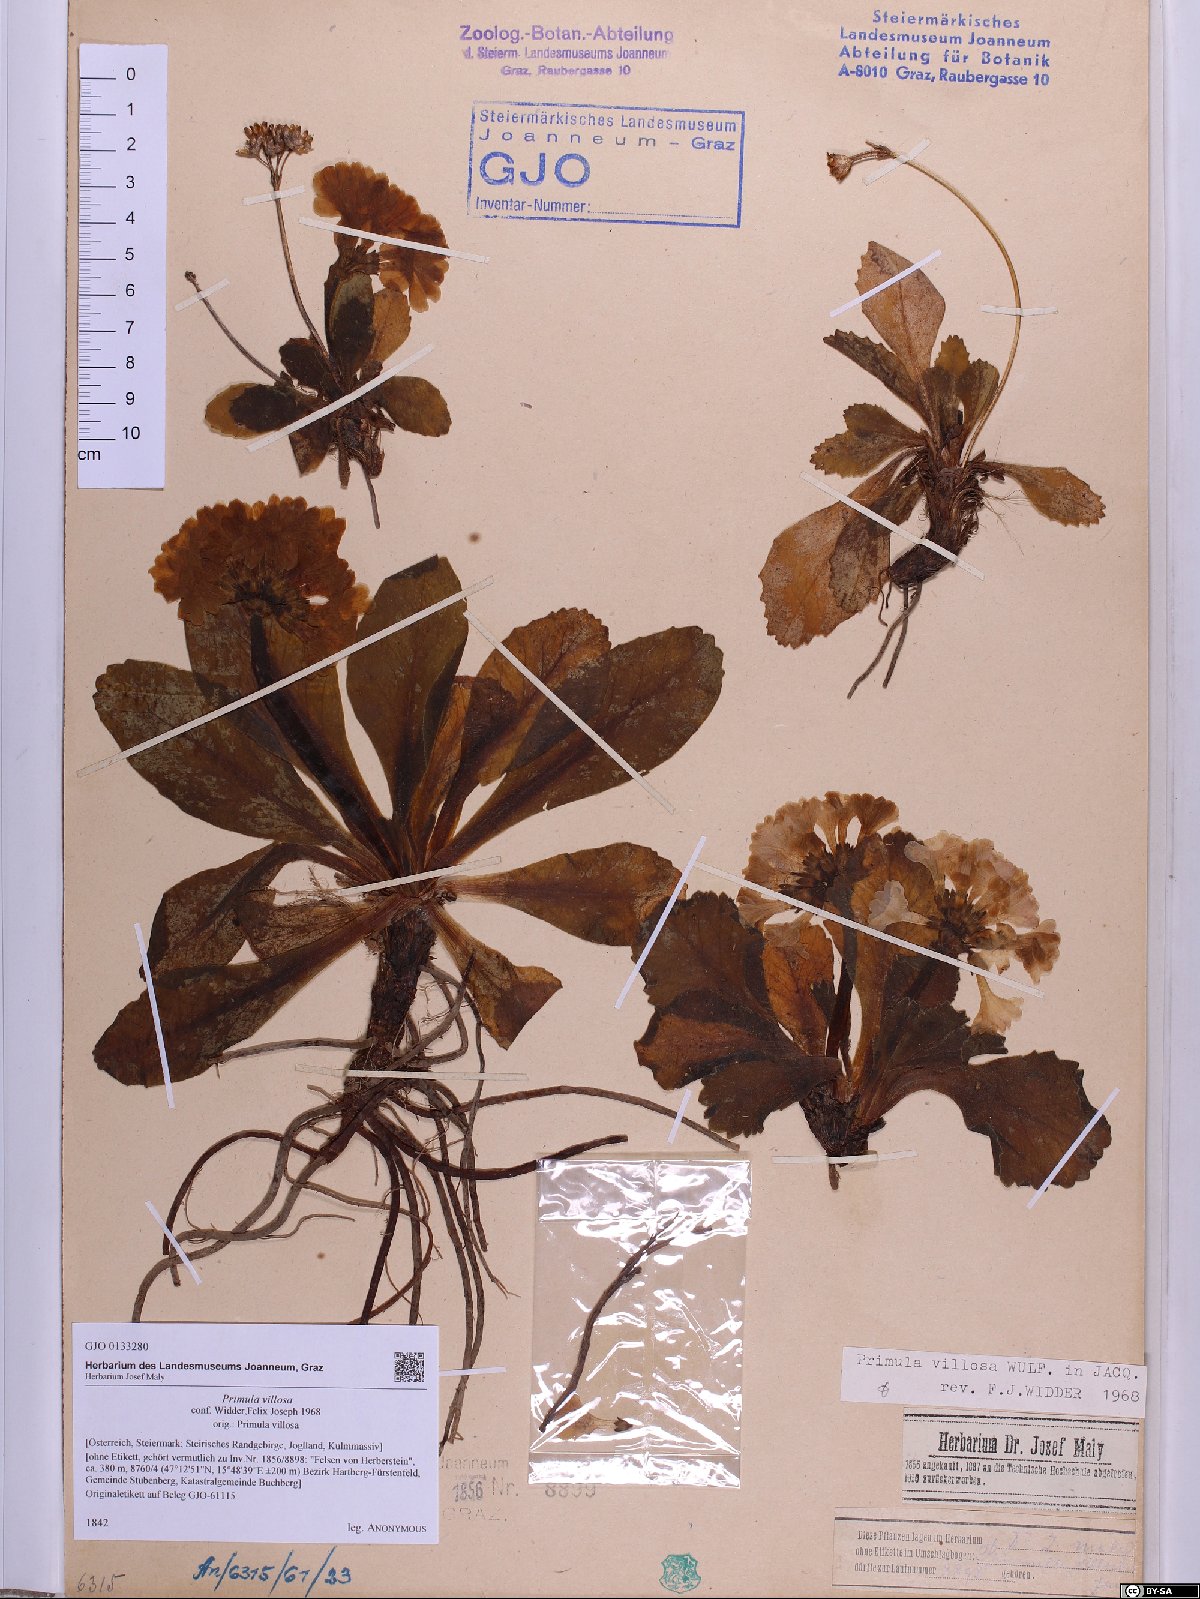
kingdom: Plantae
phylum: Tracheophyta
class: Magnoliopsida
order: Ericales
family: Primulaceae
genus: Primula
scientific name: Primula villosa
